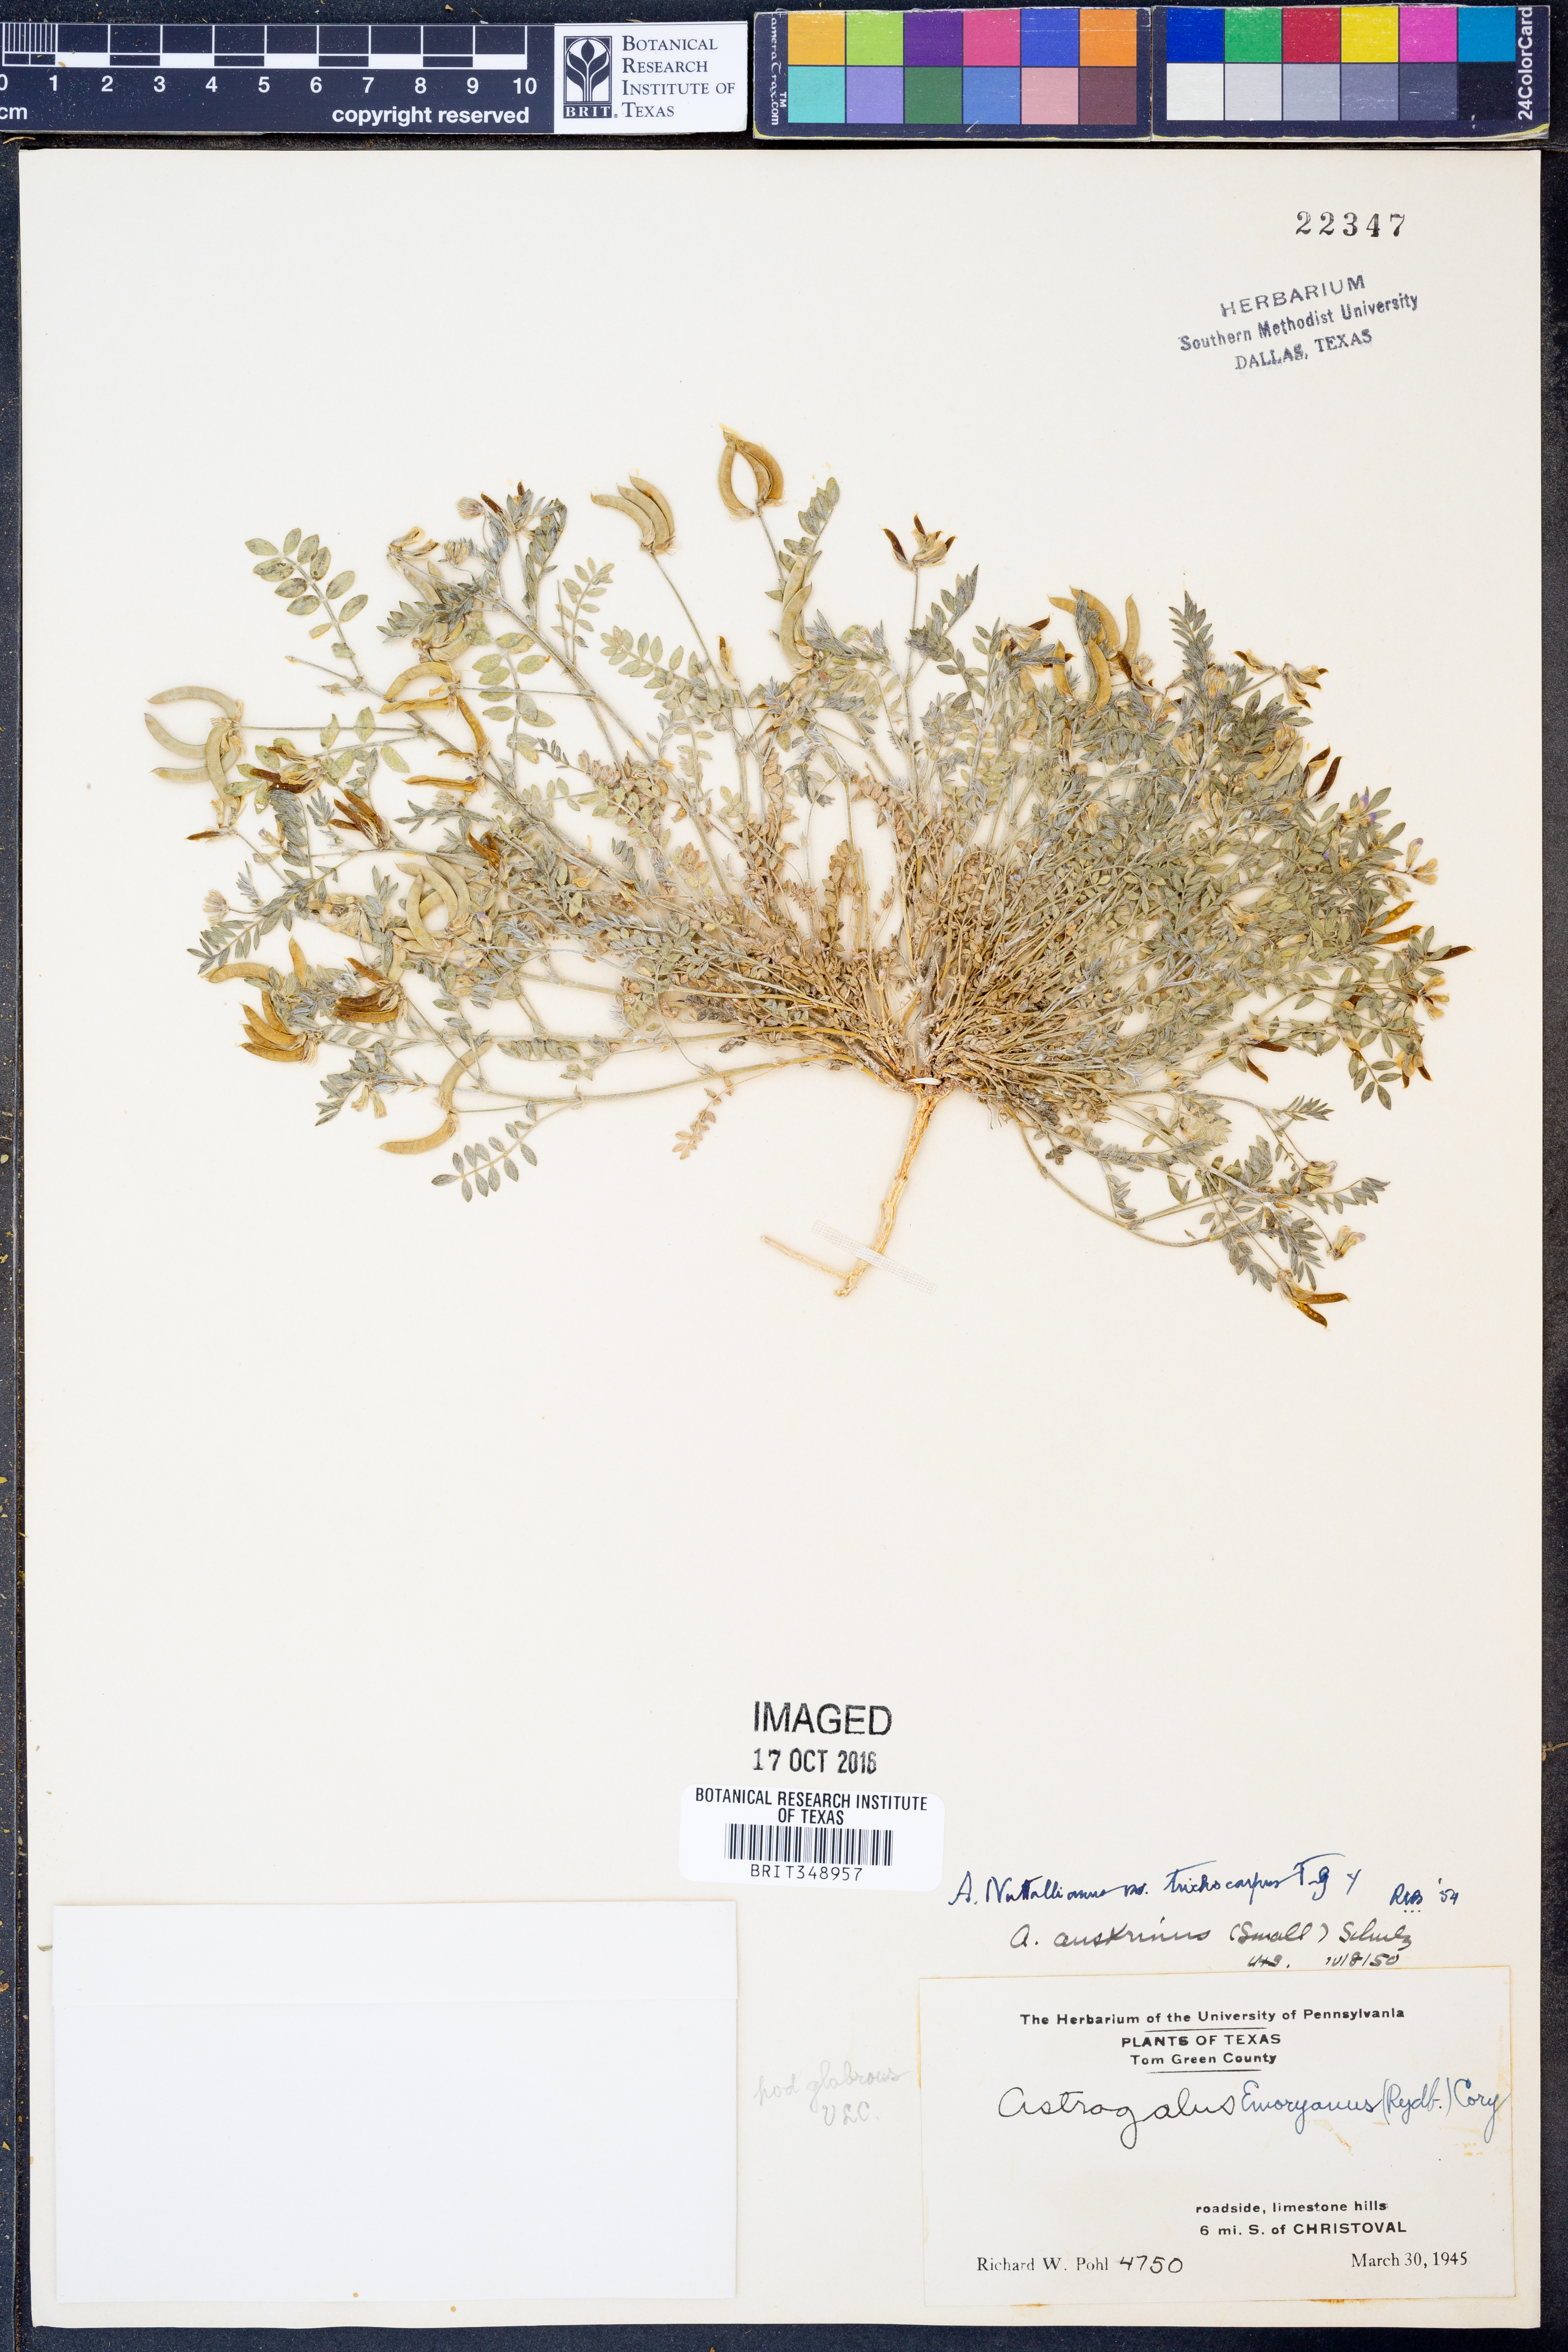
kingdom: Plantae
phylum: Tracheophyta
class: Magnoliopsida
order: Fabales
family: Fabaceae
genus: Astragalus
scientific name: Astragalus nuttallianus
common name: Smallflowered milkvetch
